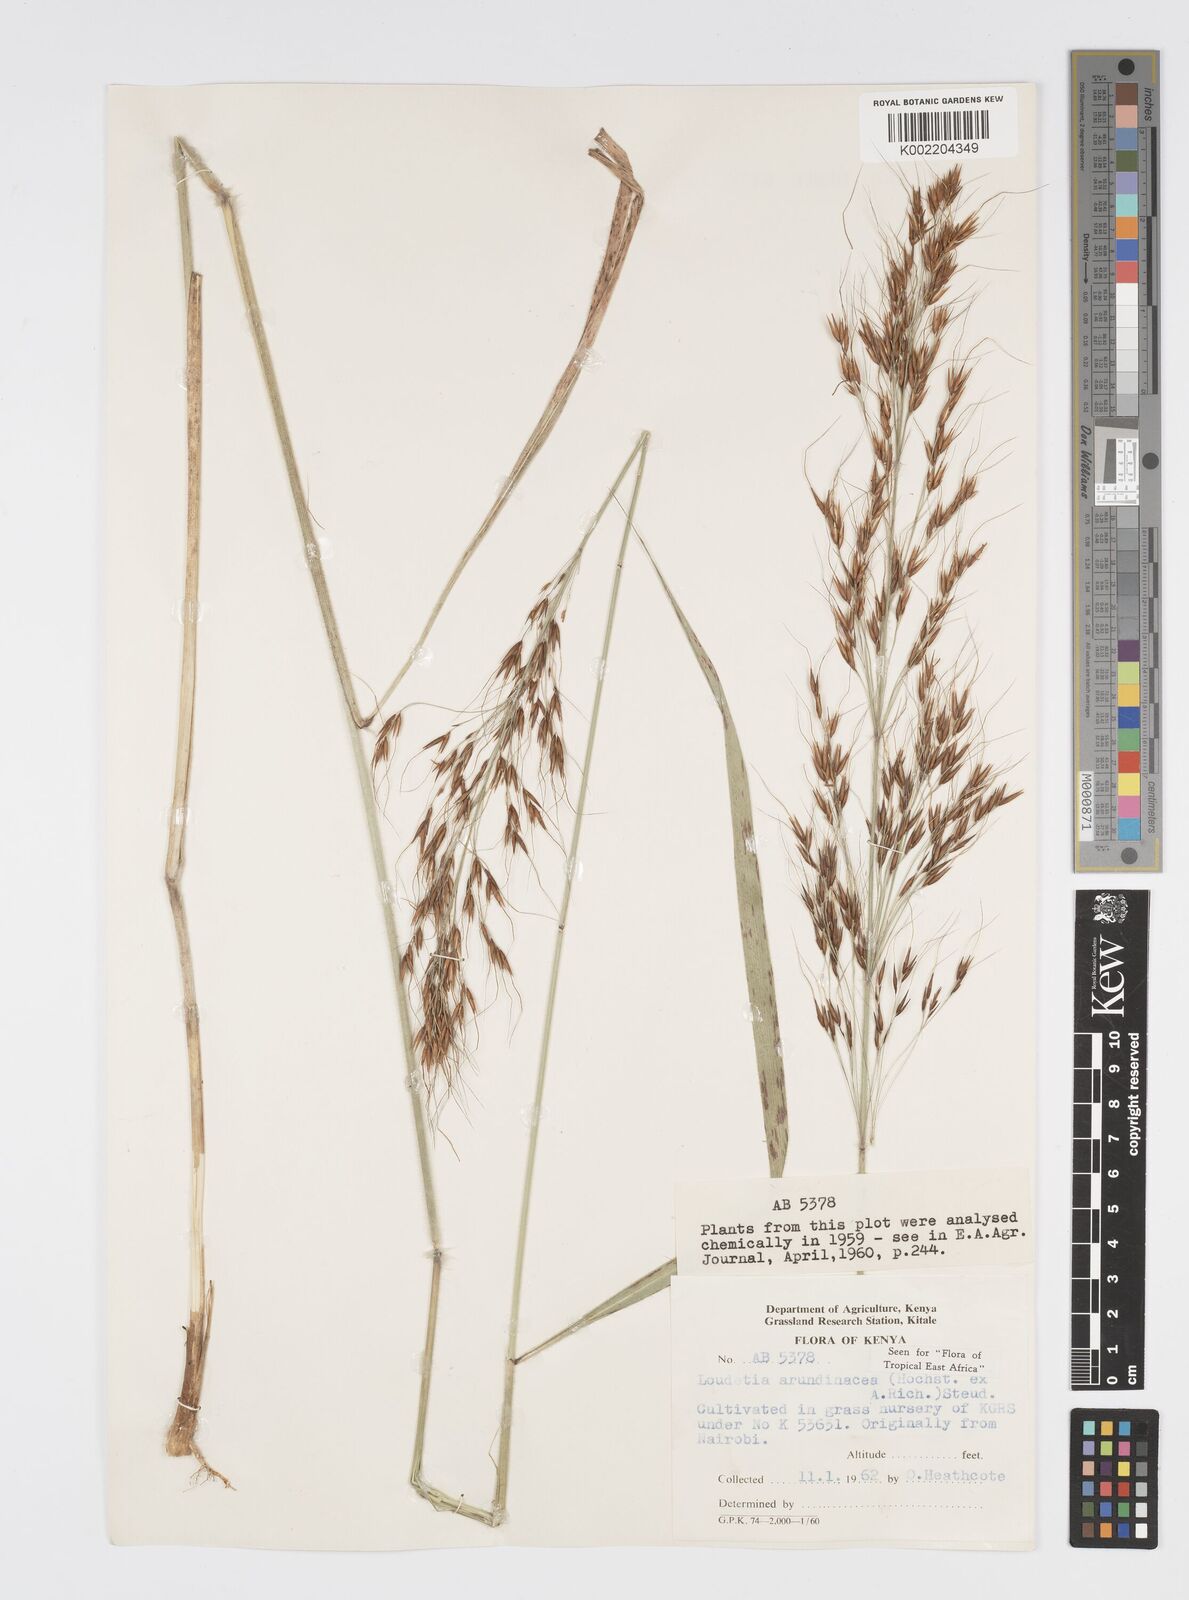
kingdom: Plantae
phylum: Tracheophyta
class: Liliopsida
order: Poales
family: Poaceae
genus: Loudetia
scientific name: Loudetia arundinacea
